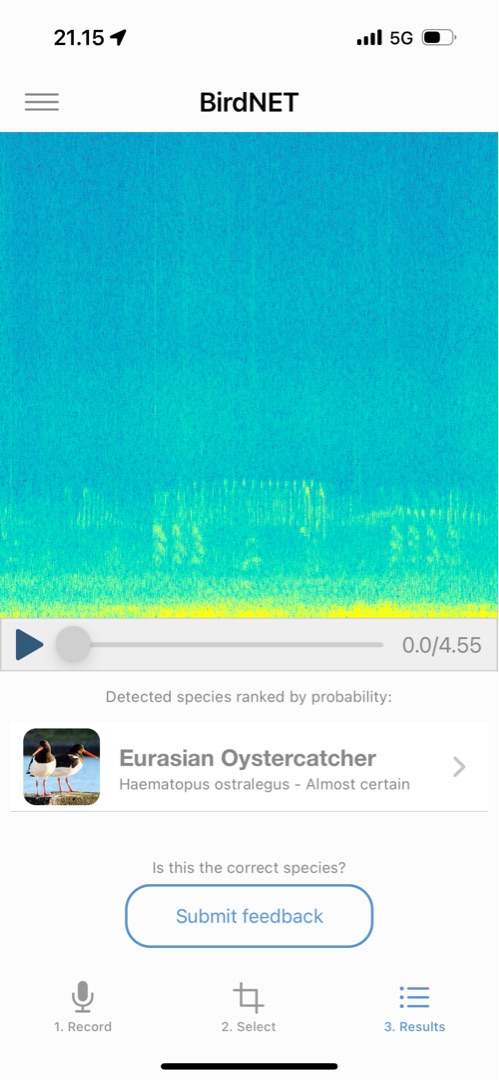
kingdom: Animalia
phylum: Chordata
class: Aves
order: Charadriiformes
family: Haematopodidae
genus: Haematopus
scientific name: Haematopus ostralegus
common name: Strandskade
